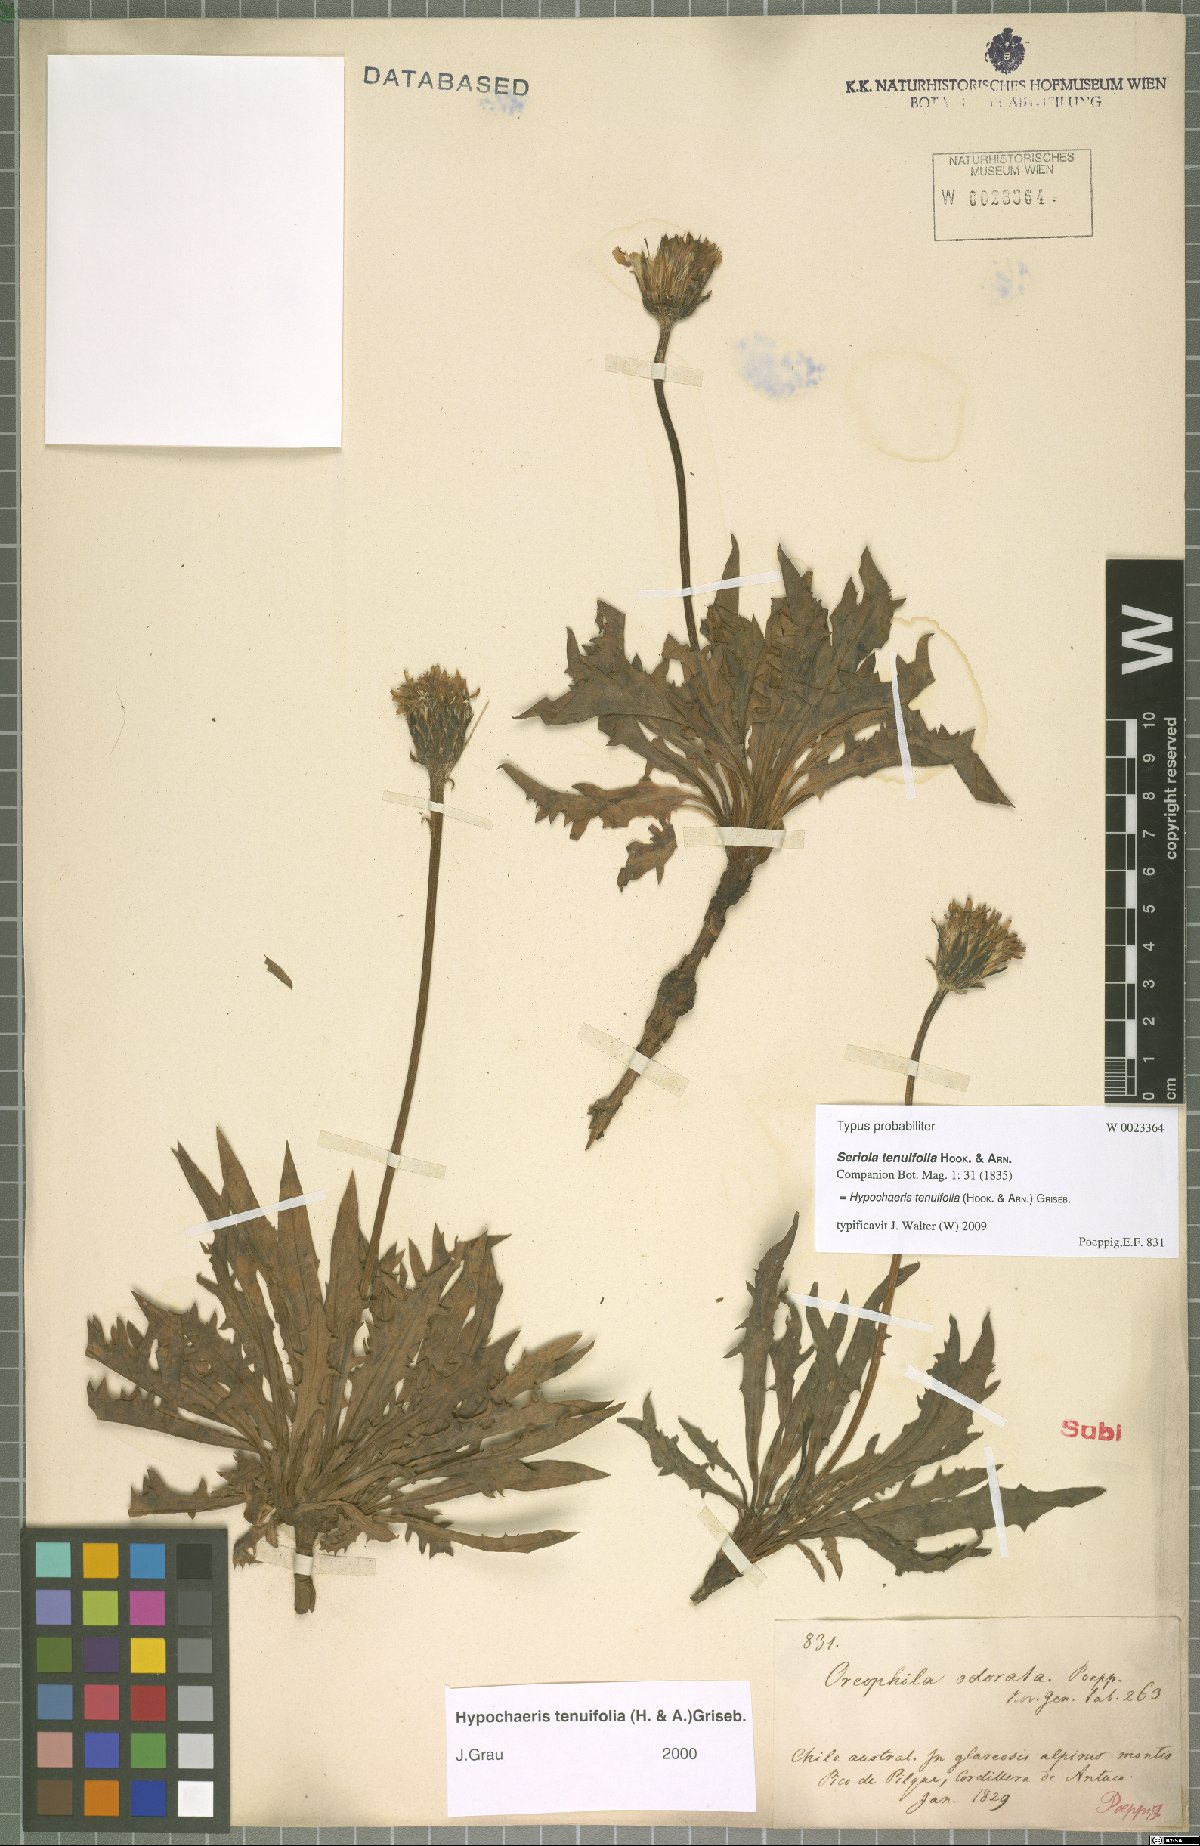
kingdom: Plantae
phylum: Tracheophyta
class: Magnoliopsida
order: Asterales
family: Asteraceae
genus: Hypochaeris
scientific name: Hypochaeris tenuifolia
